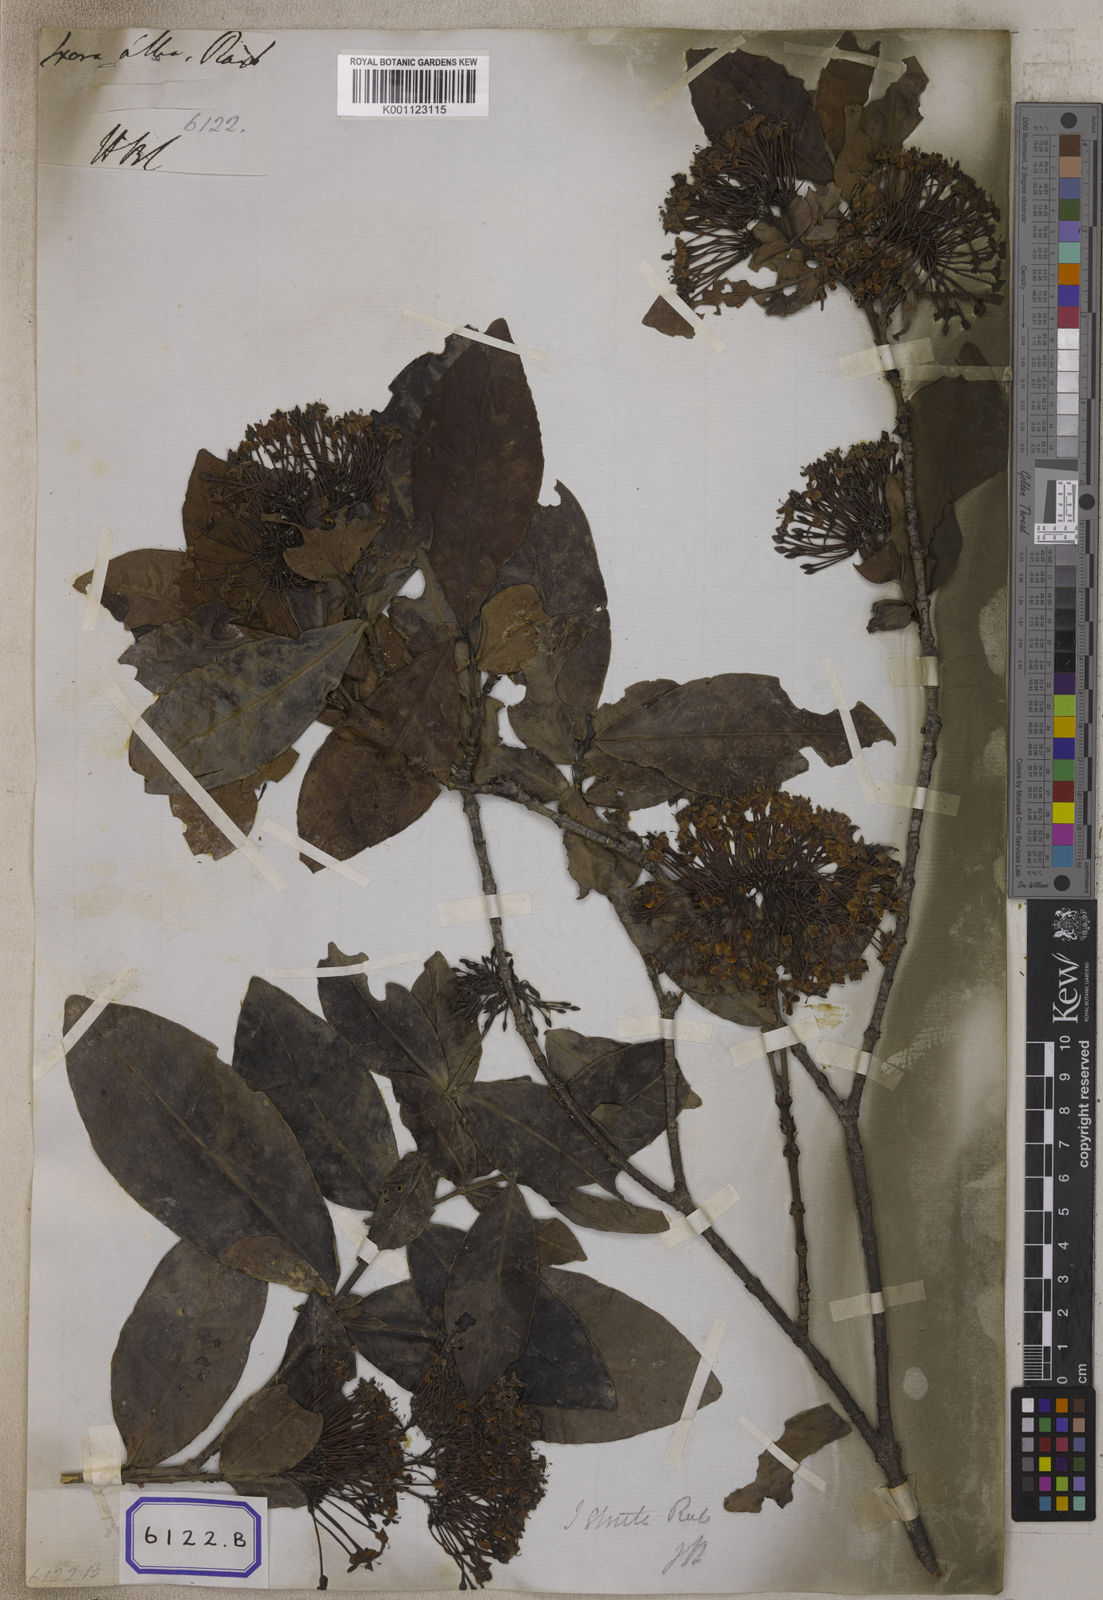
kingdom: Plantae
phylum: Tracheophyta
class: Magnoliopsida
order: Gentianales
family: Rubiaceae
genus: Ixora
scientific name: Ixora alba
